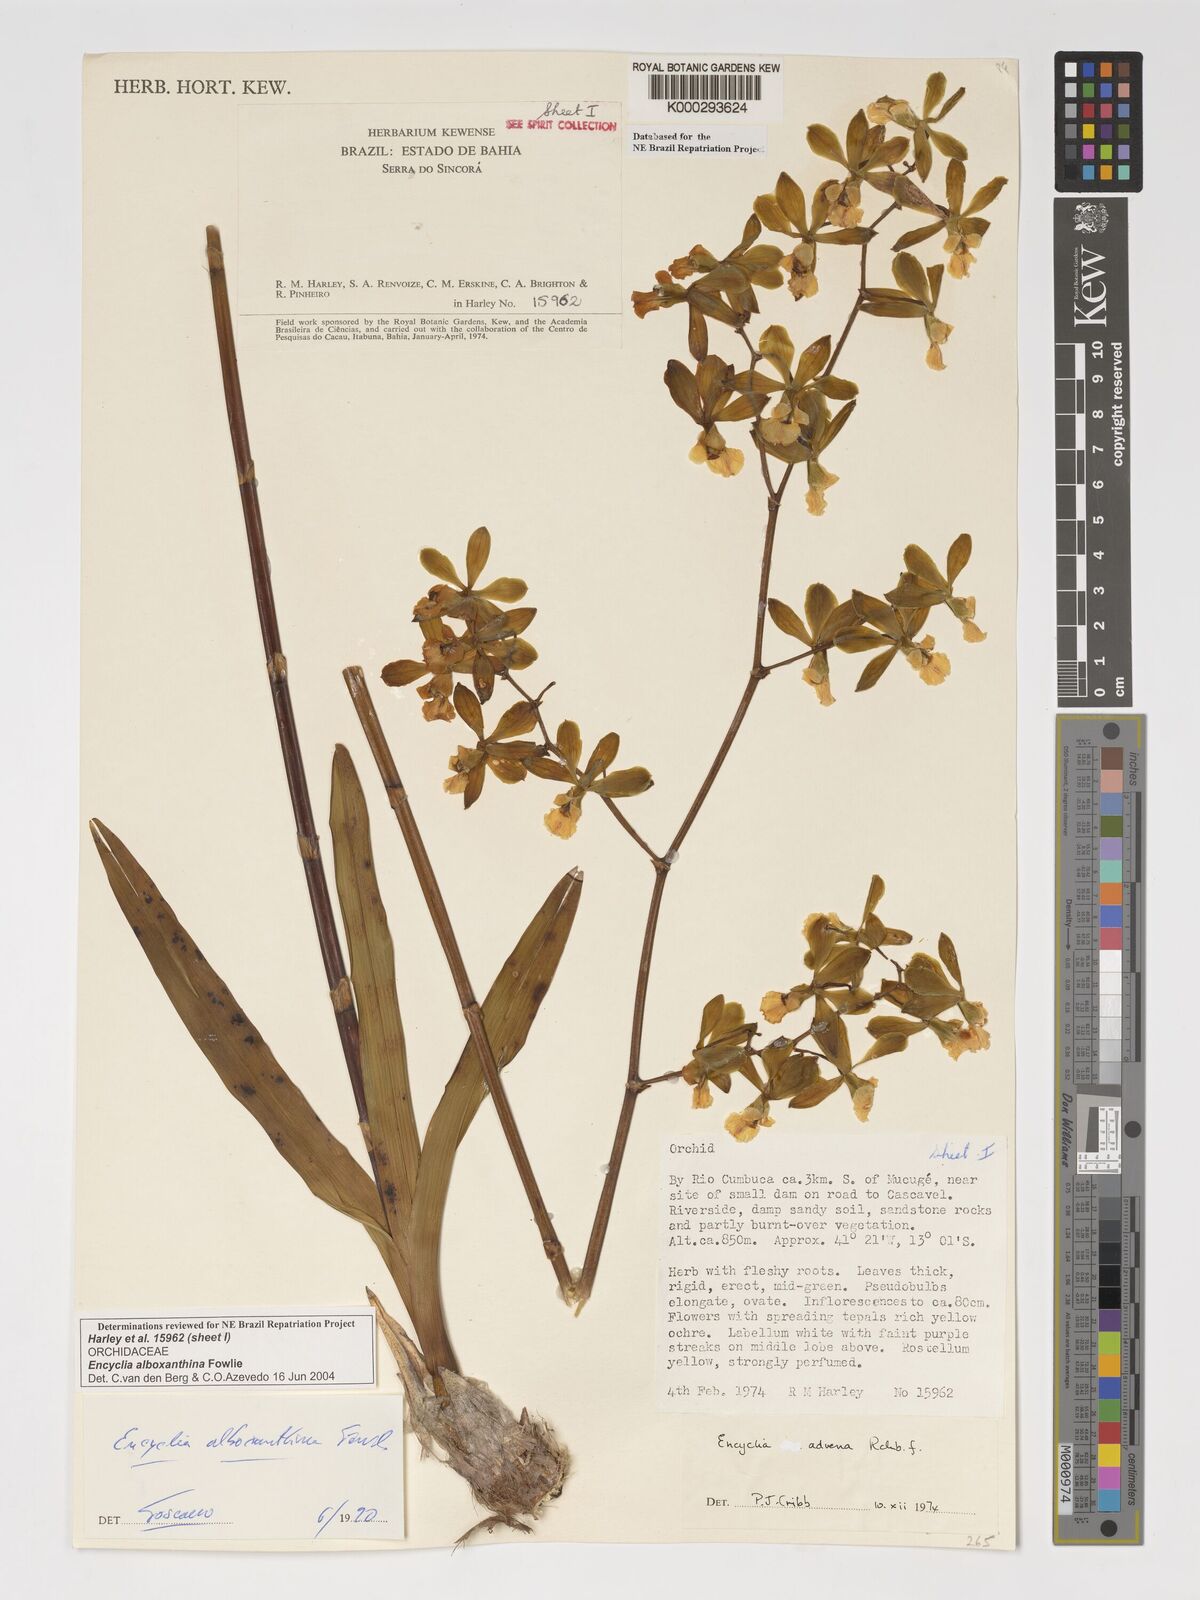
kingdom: Plantae
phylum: Tracheophyta
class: Liliopsida
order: Asparagales
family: Orchidaceae
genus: Encyclia
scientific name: Encyclia alboxanthina
